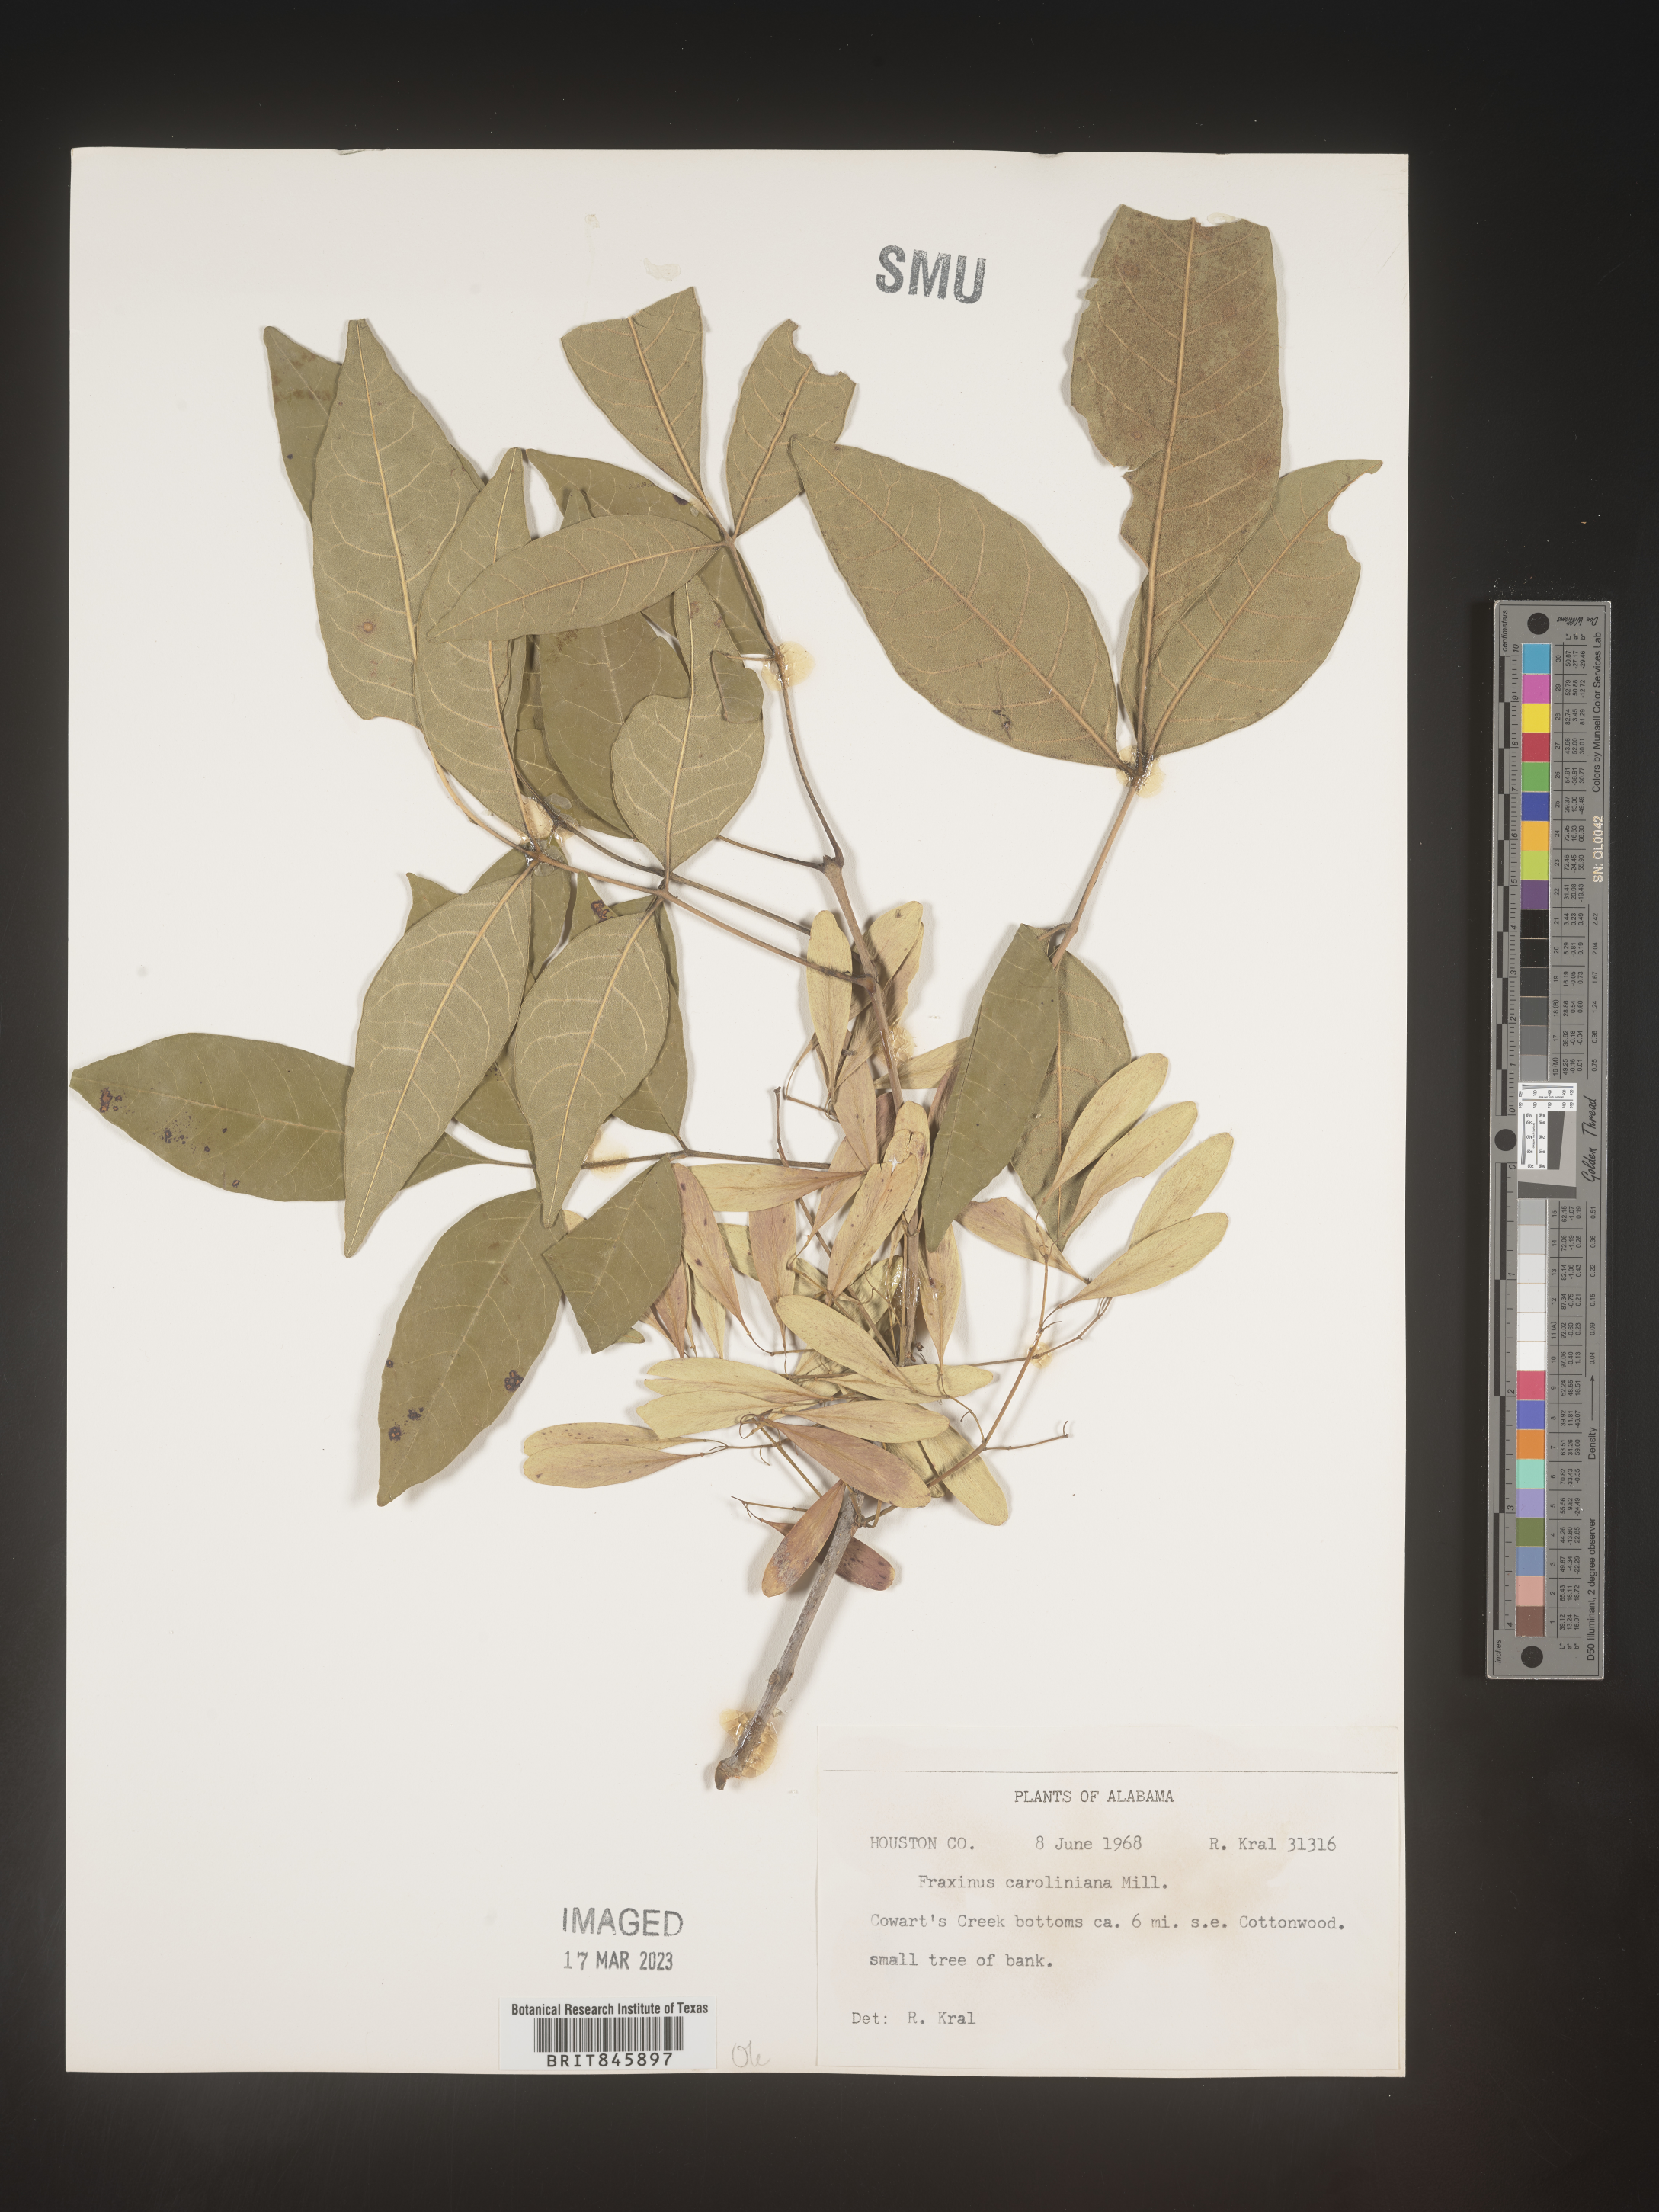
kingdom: Plantae
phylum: Tracheophyta
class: Magnoliopsida
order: Lamiales
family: Oleaceae
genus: Fraxinus
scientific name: Fraxinus caroliniana
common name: Carolina ash
